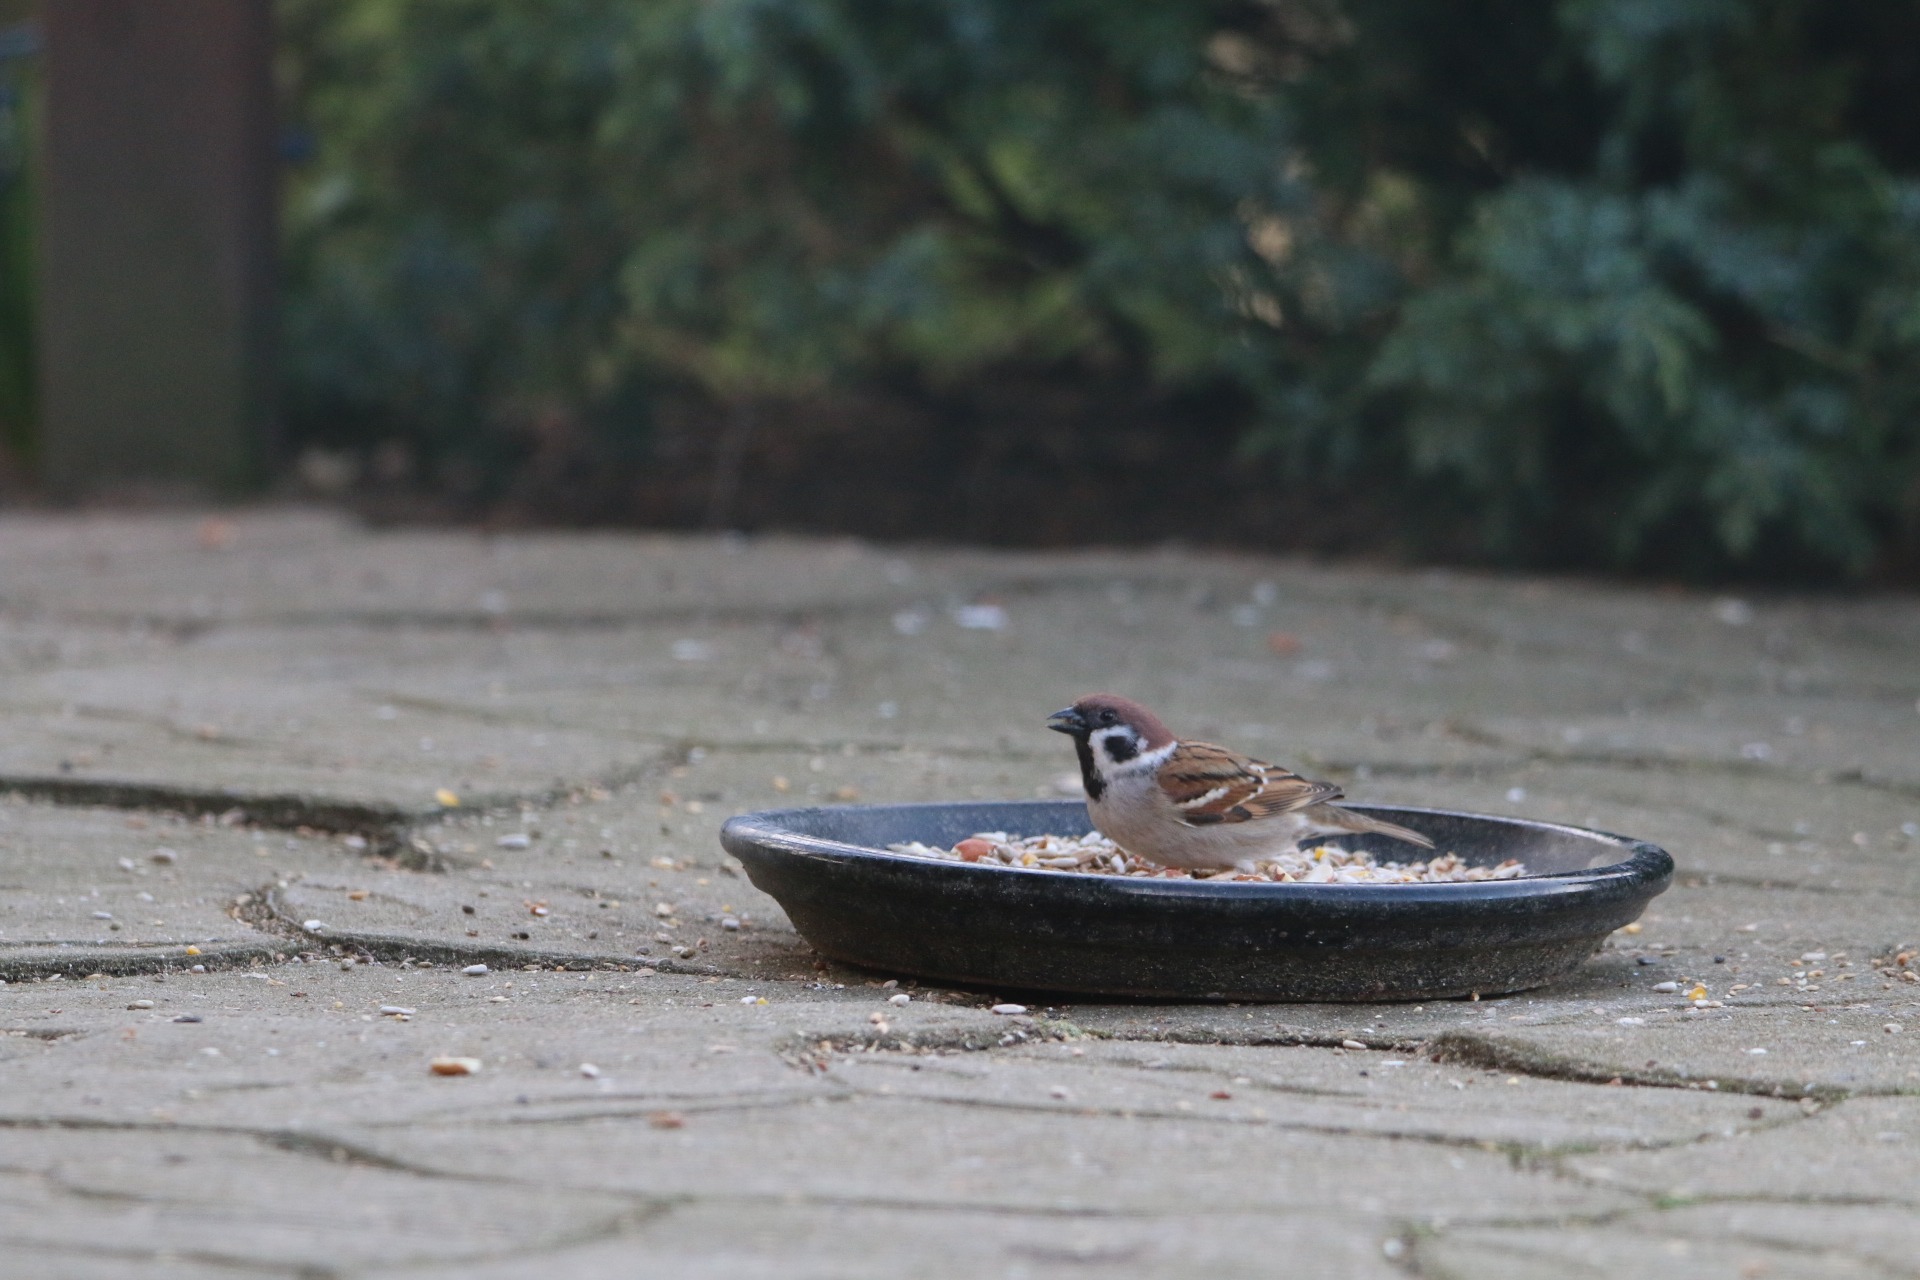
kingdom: Animalia
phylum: Chordata
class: Aves
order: Passeriformes
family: Passeridae
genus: Passer
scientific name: Passer montanus
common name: Skovspurv
